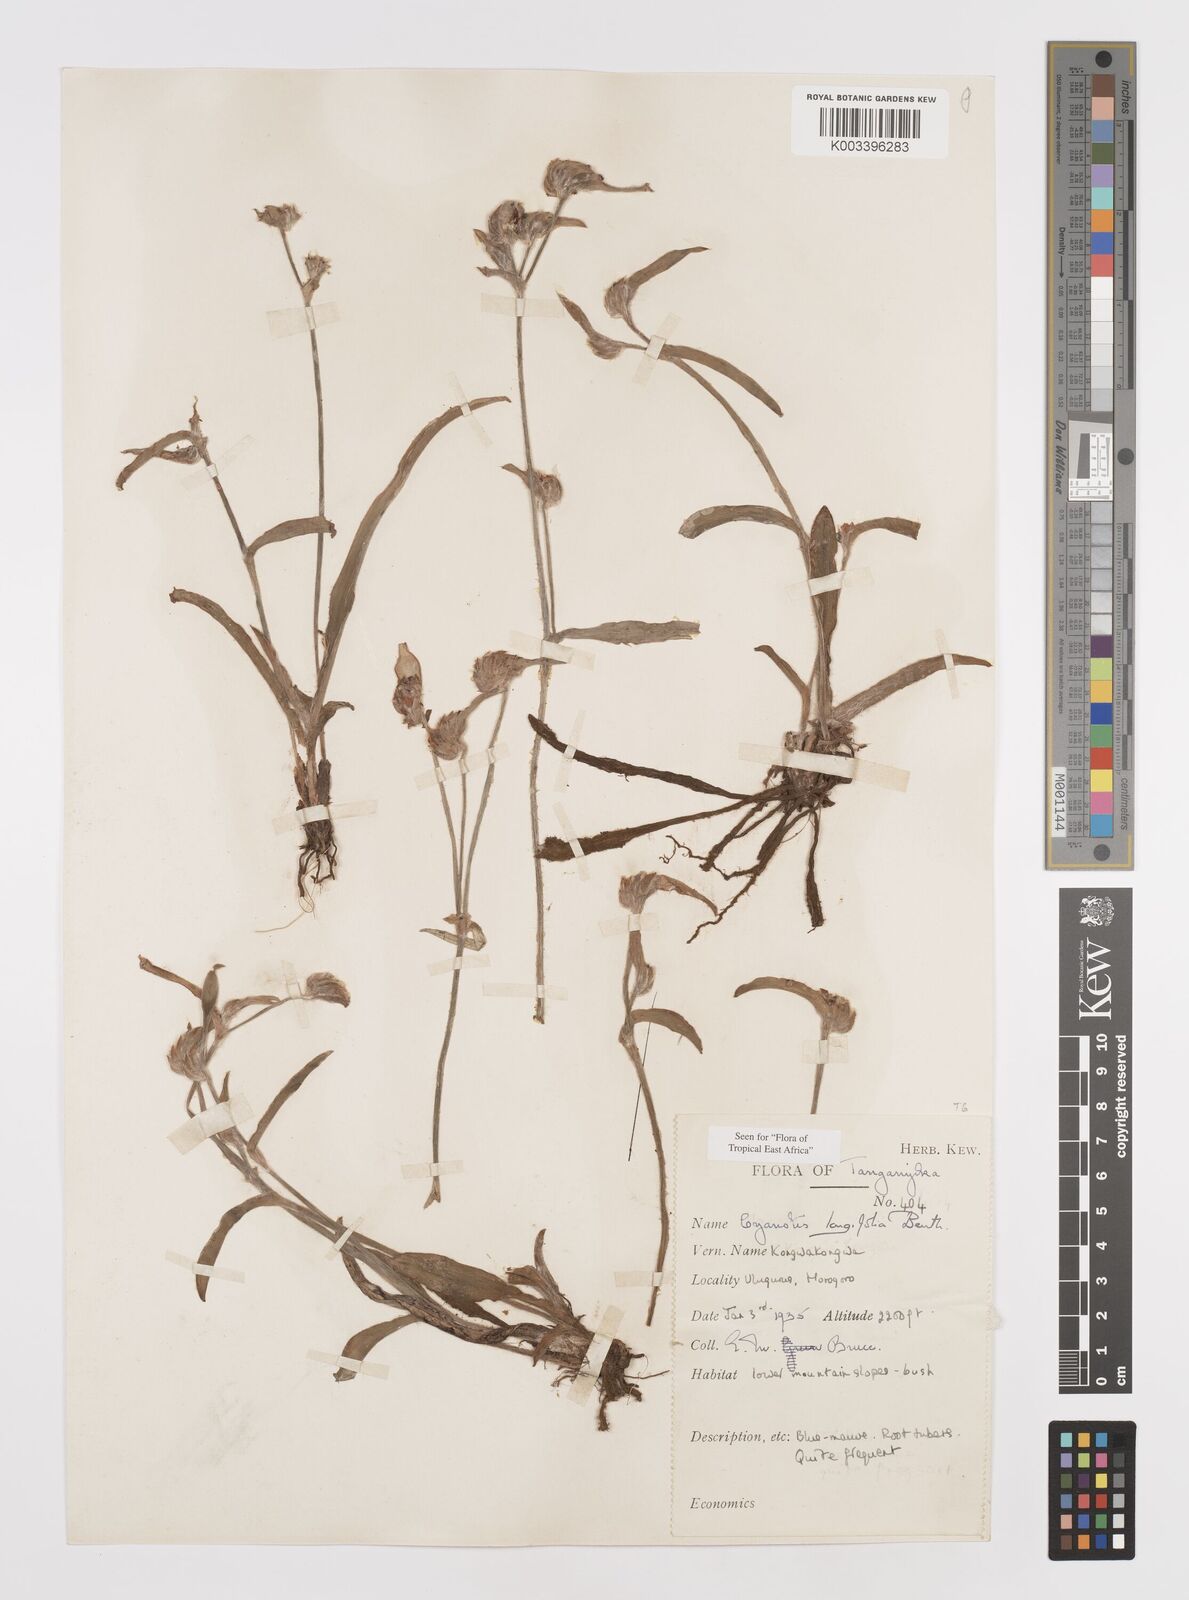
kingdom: Plantae
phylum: Tracheophyta
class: Liliopsida
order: Commelinales
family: Commelinaceae
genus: Cyanotis
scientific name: Cyanotis longifolia
